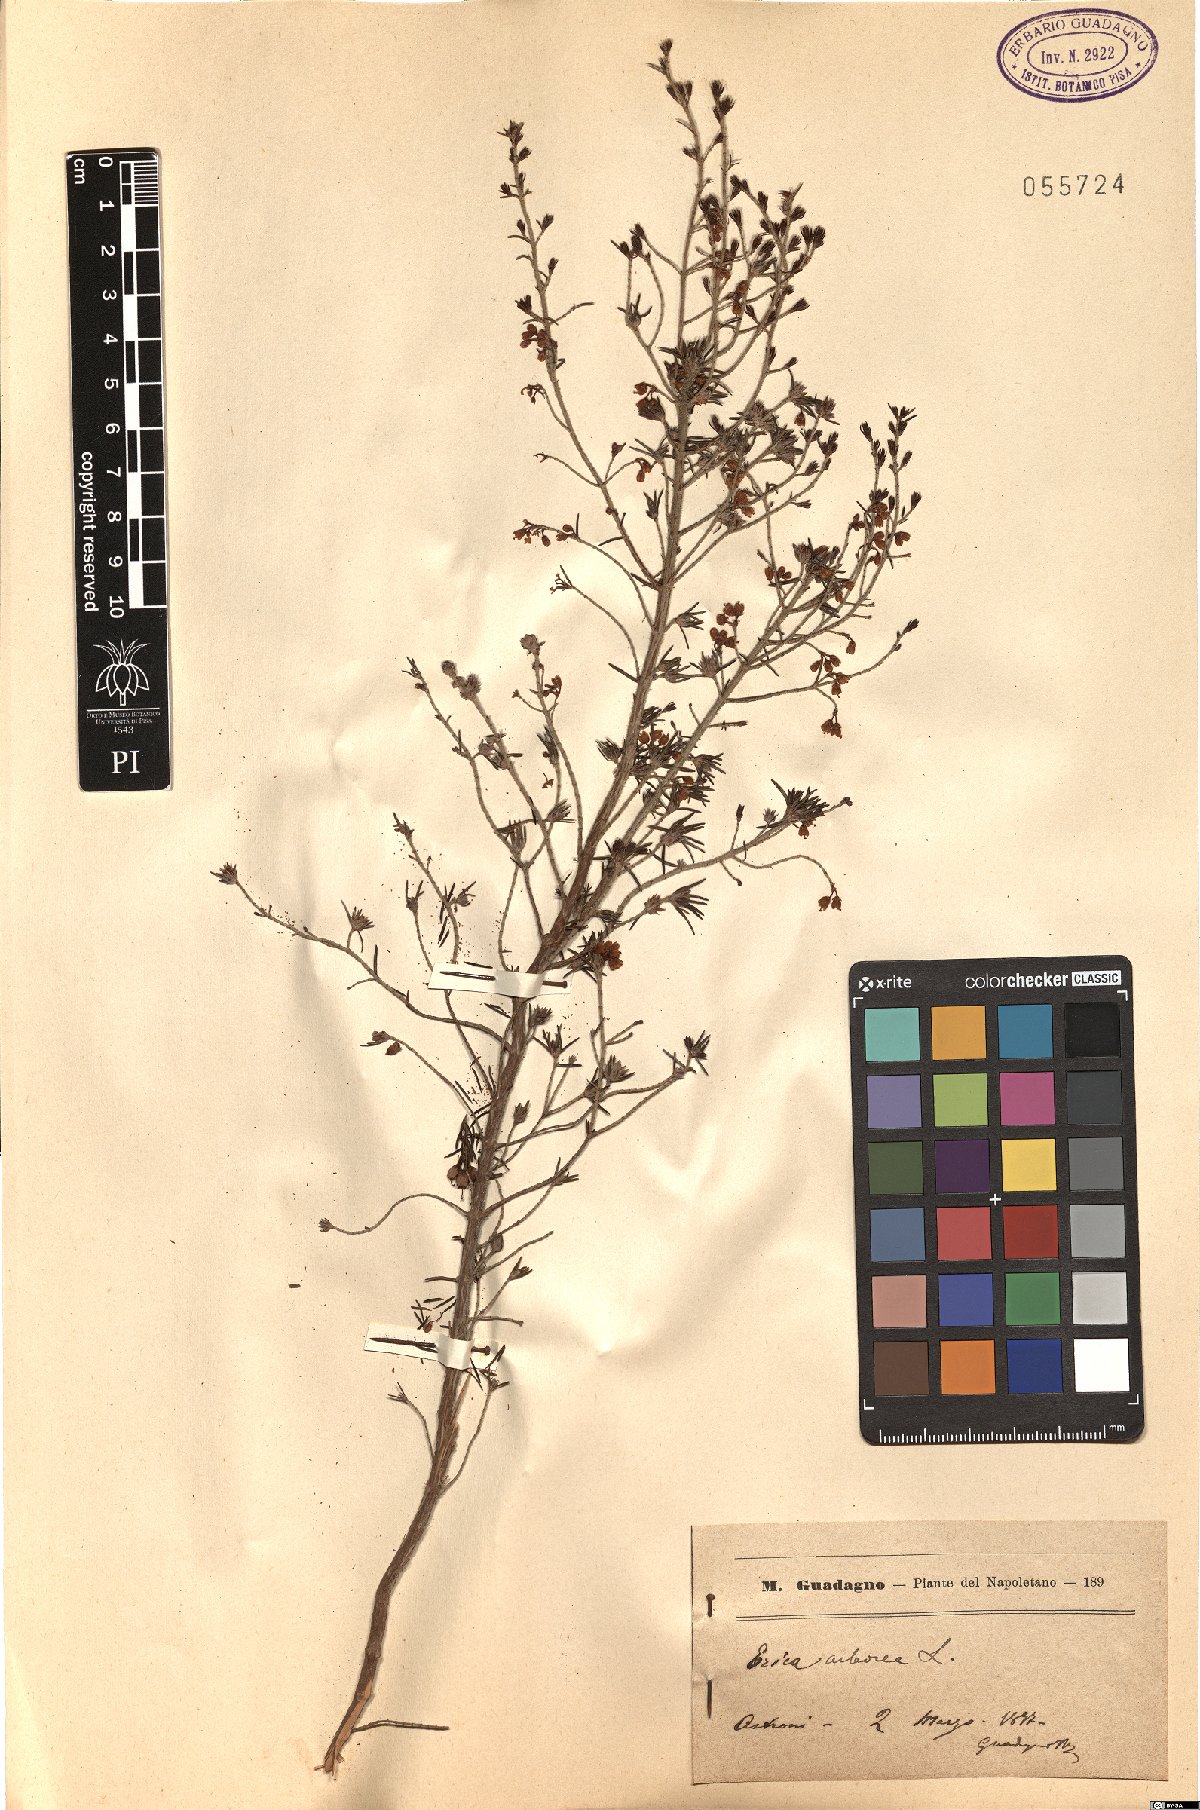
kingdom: Plantae
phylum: Tracheophyta
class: Magnoliopsida
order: Ericales
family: Ericaceae
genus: Erica
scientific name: Erica arborea
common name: Tree heath
